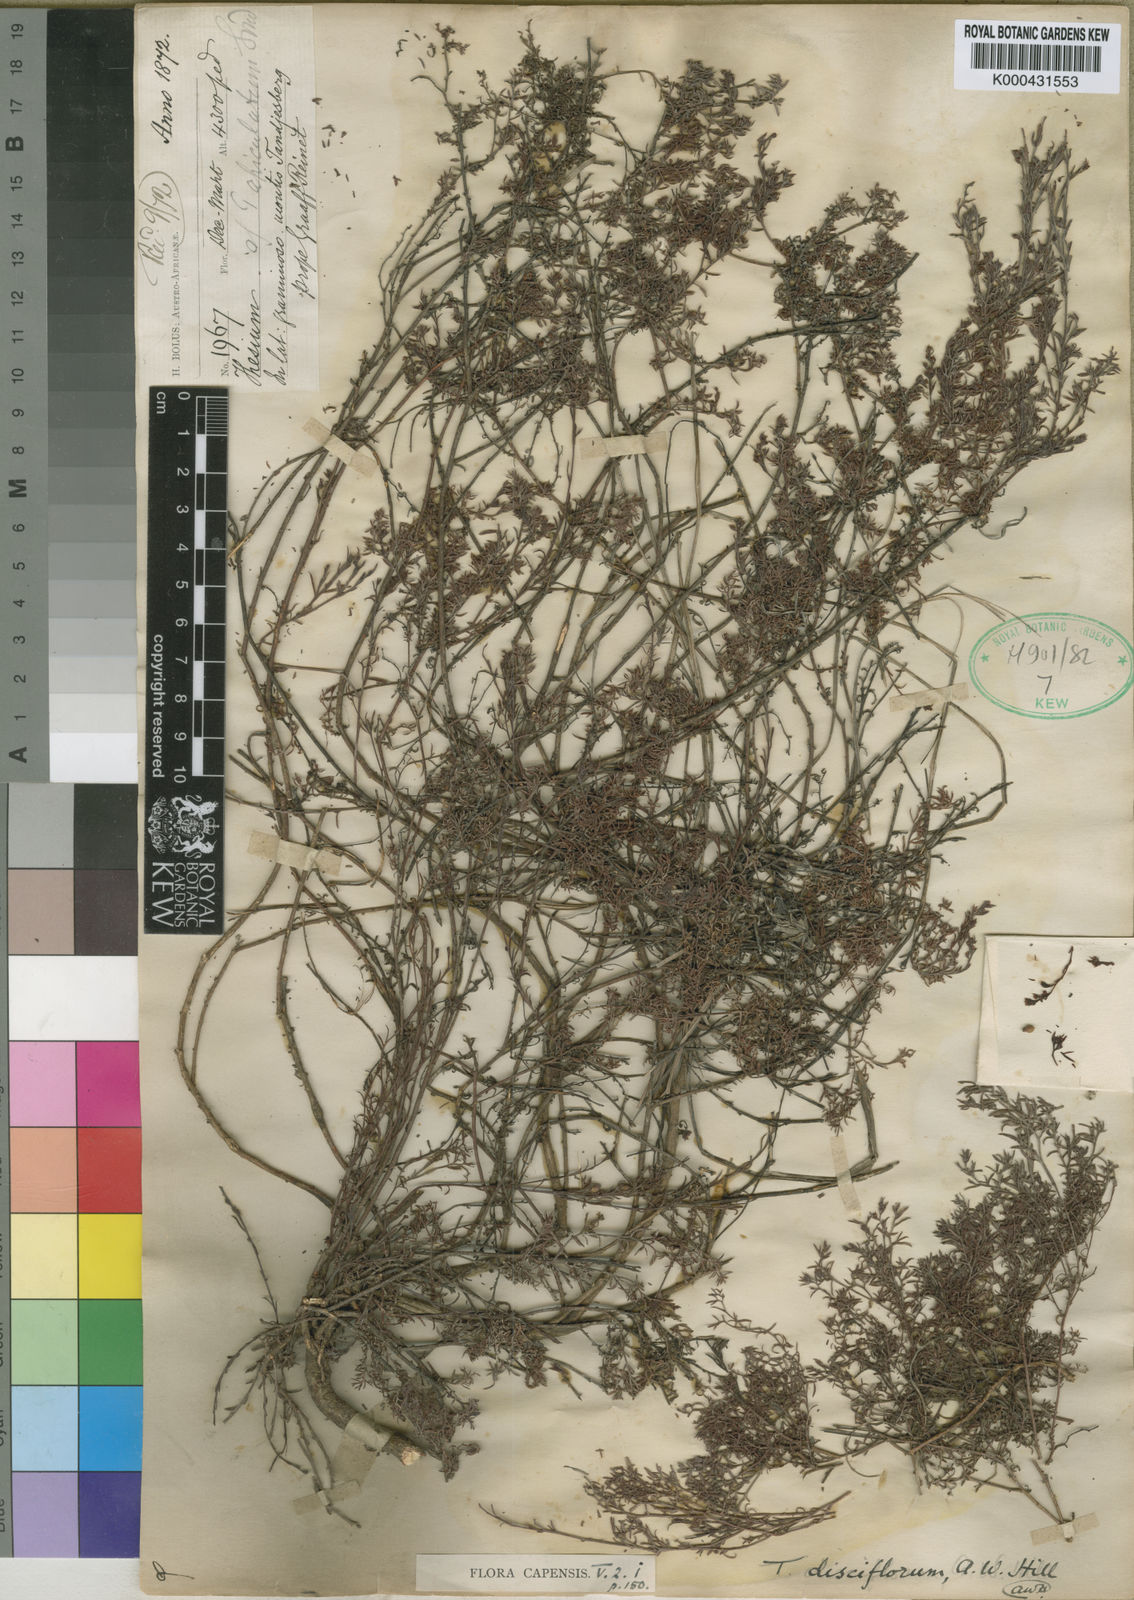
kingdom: Plantae
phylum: Tracheophyta
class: Magnoliopsida
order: Santalales
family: Thesiaceae
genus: Thesium
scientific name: Thesium disciflorum
